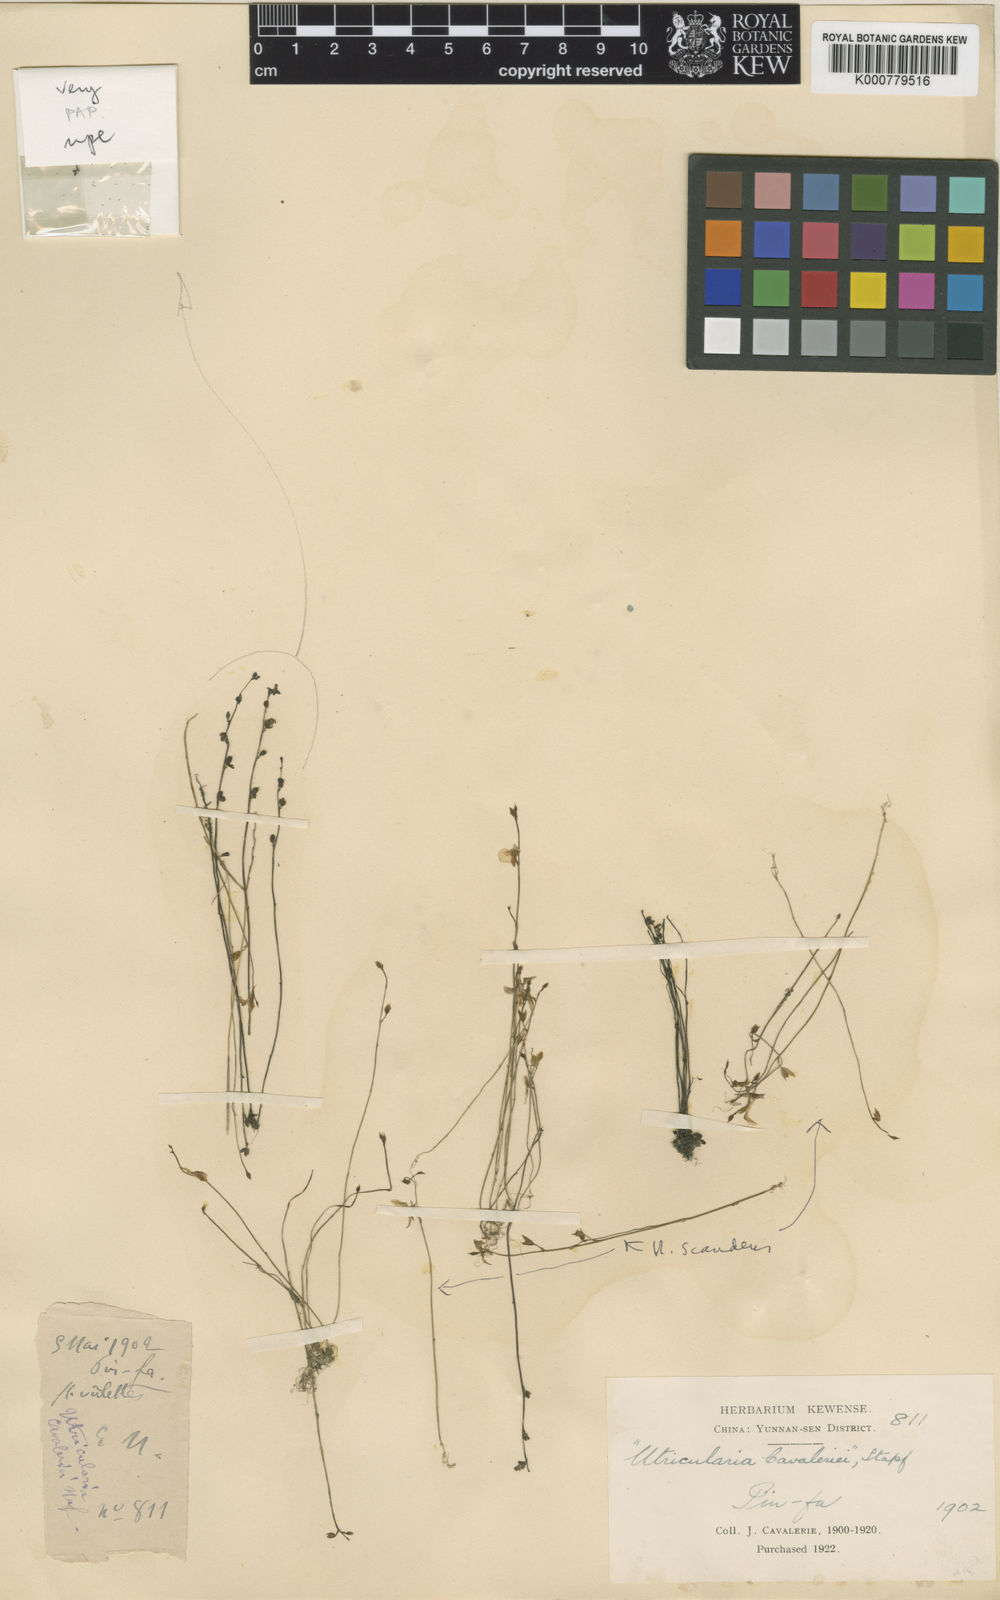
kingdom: Plantae
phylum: Tracheophyta
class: Magnoliopsida
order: Lamiales
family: Lentibulariaceae
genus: Utricularia
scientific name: Utricularia caerulea
